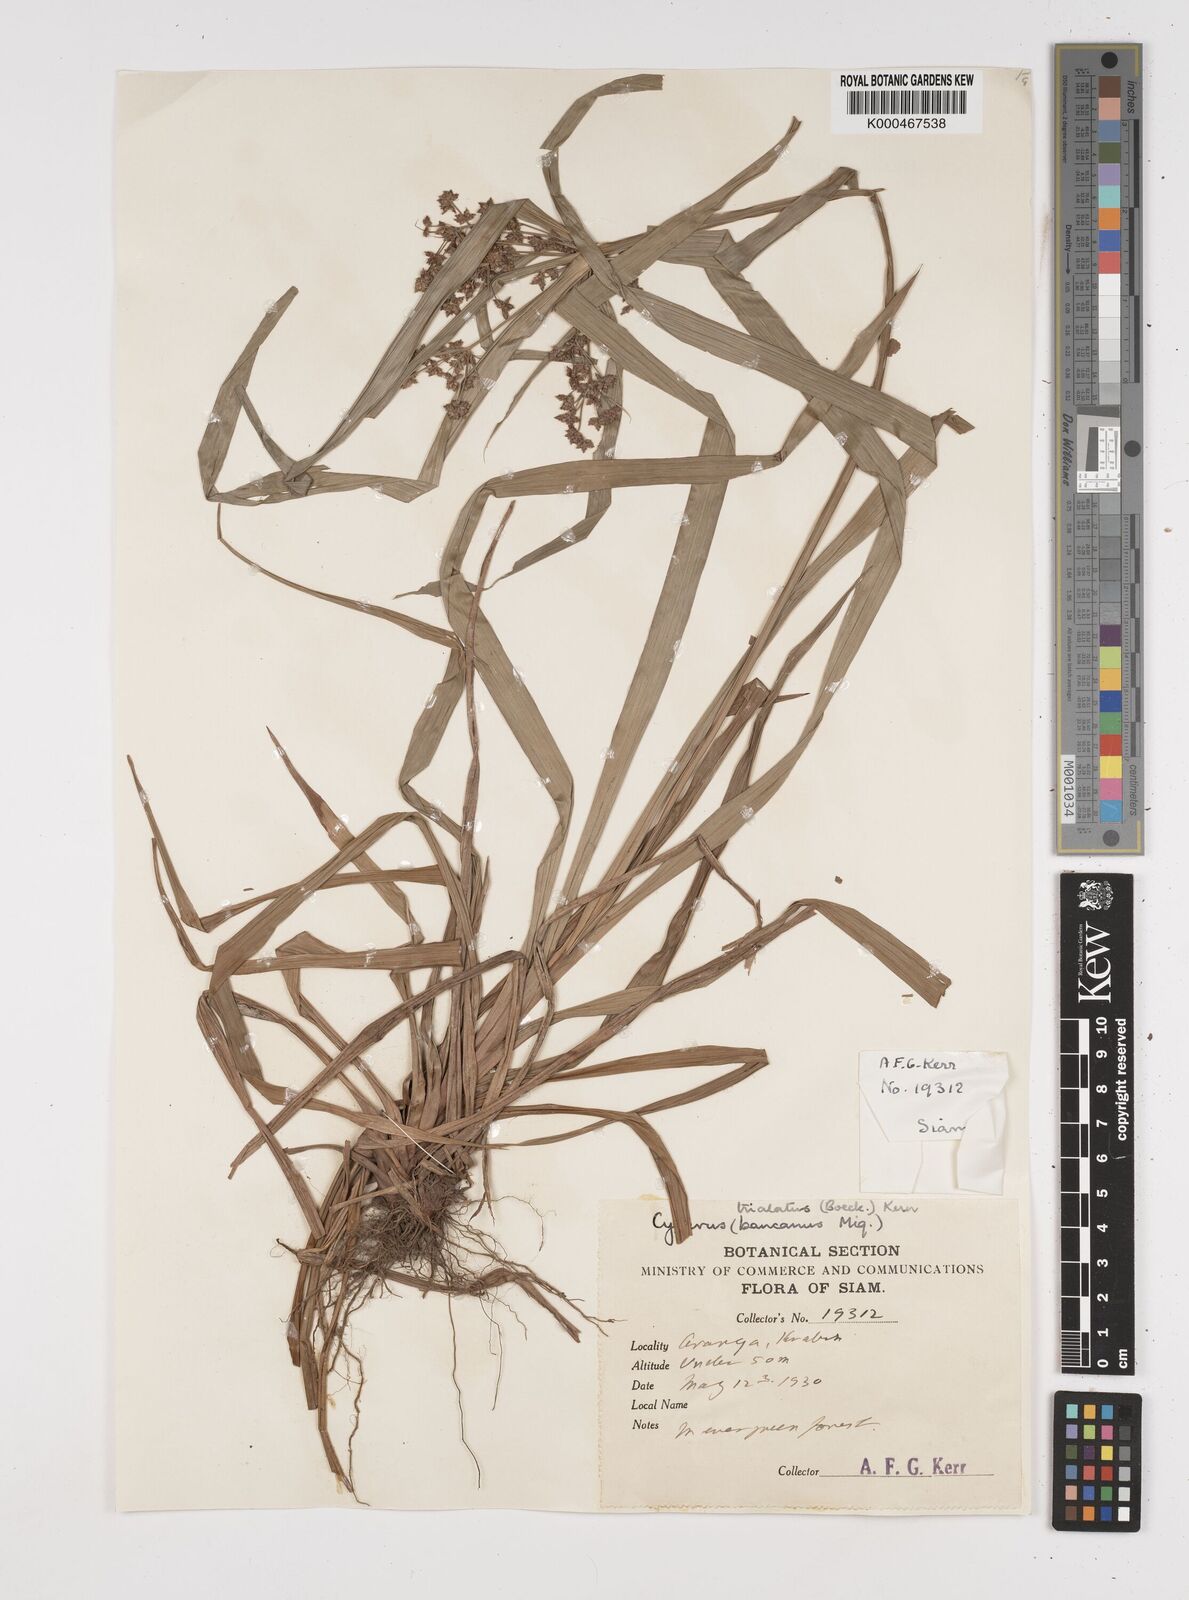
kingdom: Plantae
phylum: Tracheophyta
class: Liliopsida
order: Poales
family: Cyperaceae
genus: Cyperus
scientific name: Cyperus trialatus
